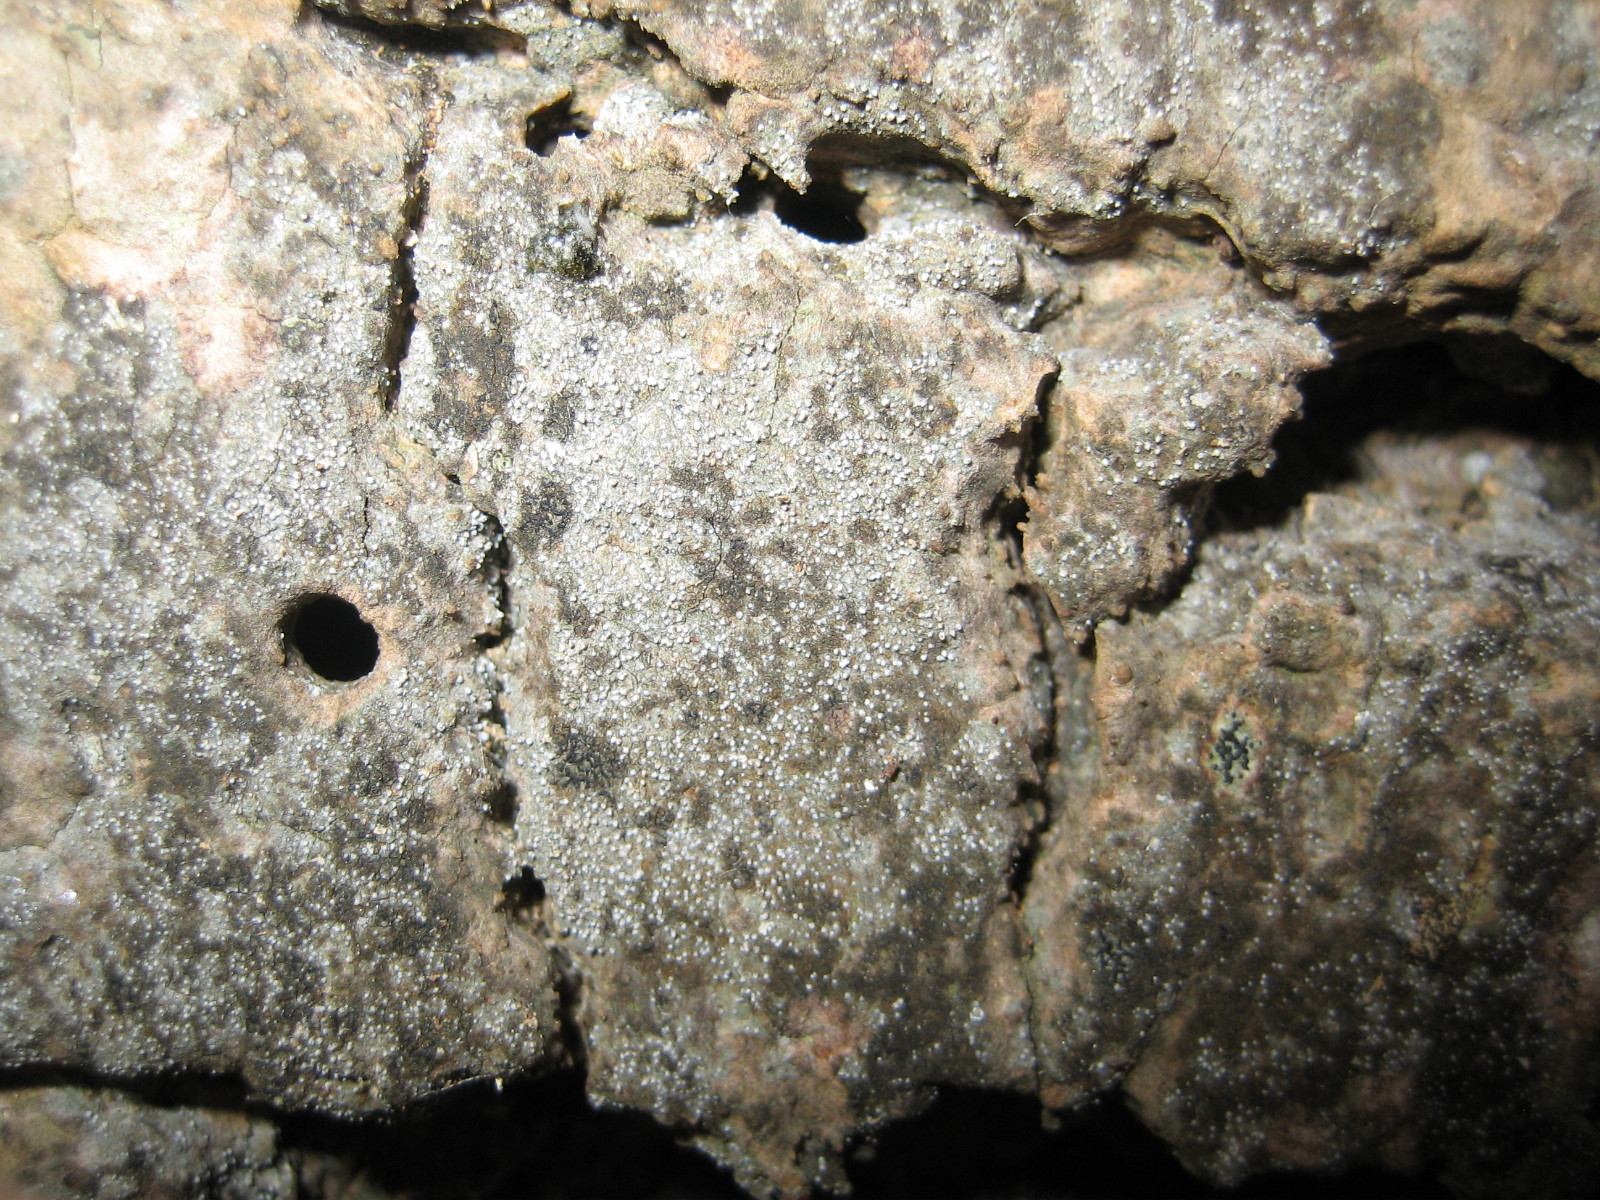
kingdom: Fungi
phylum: Ascomycota
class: Arthoniomycetes
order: Arthoniales
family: Opegraphaceae
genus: Opegrapha
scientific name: Opegrapha vermicellifera
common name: nåleprikket bogstavlav
